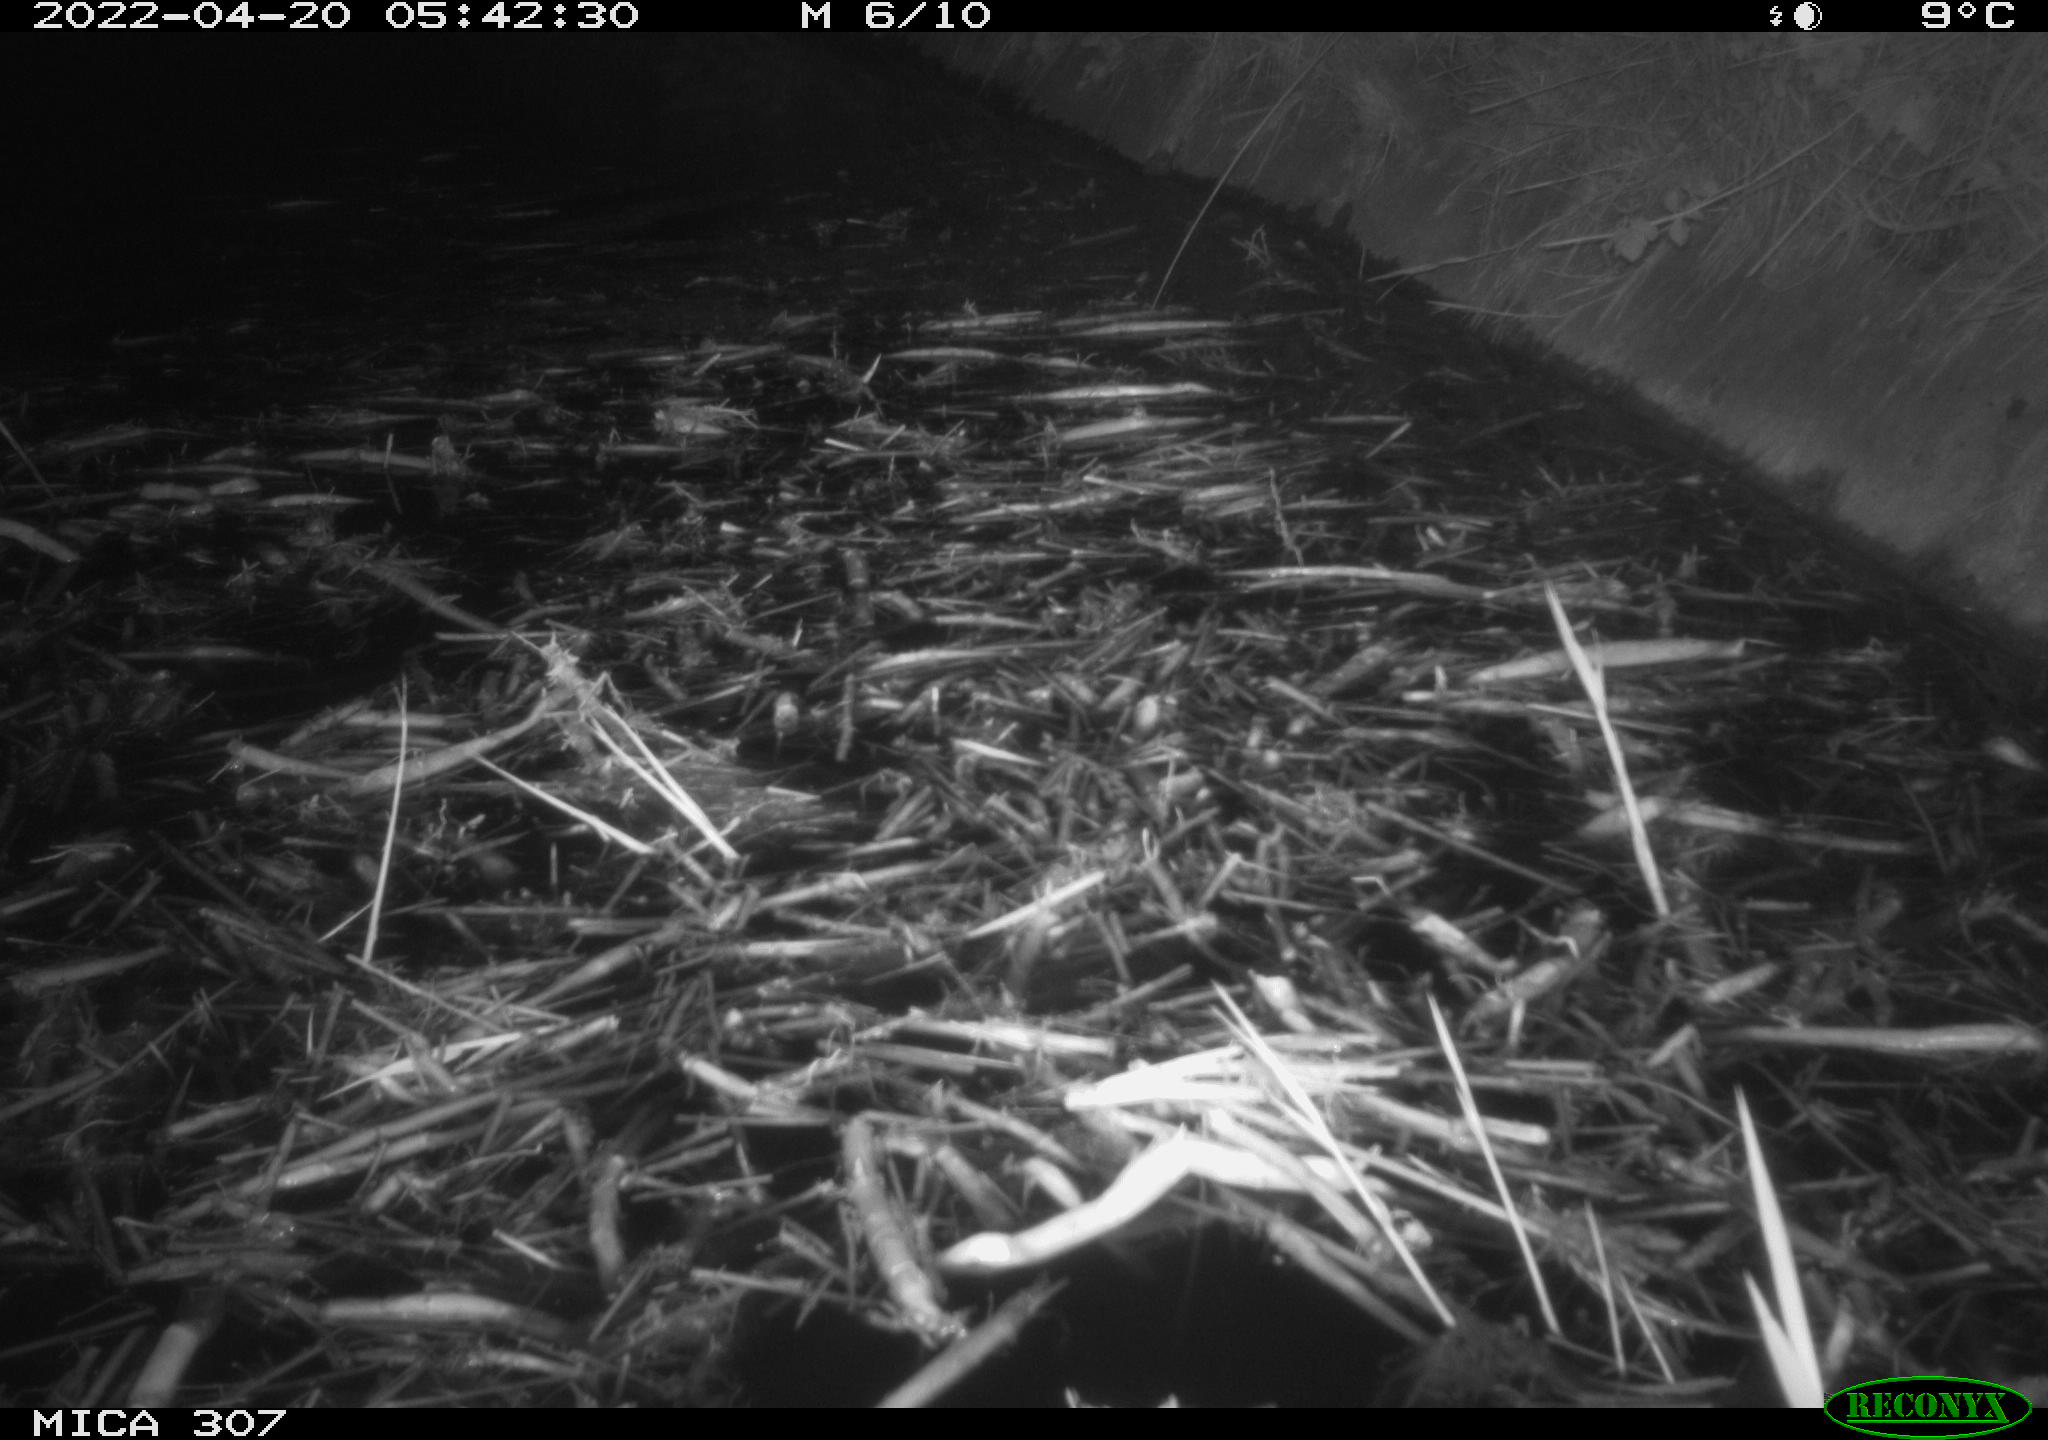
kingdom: Animalia
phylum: Chordata
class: Aves
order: Anseriformes
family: Anatidae
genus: Anas
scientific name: Anas platyrhynchos
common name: Mallard
